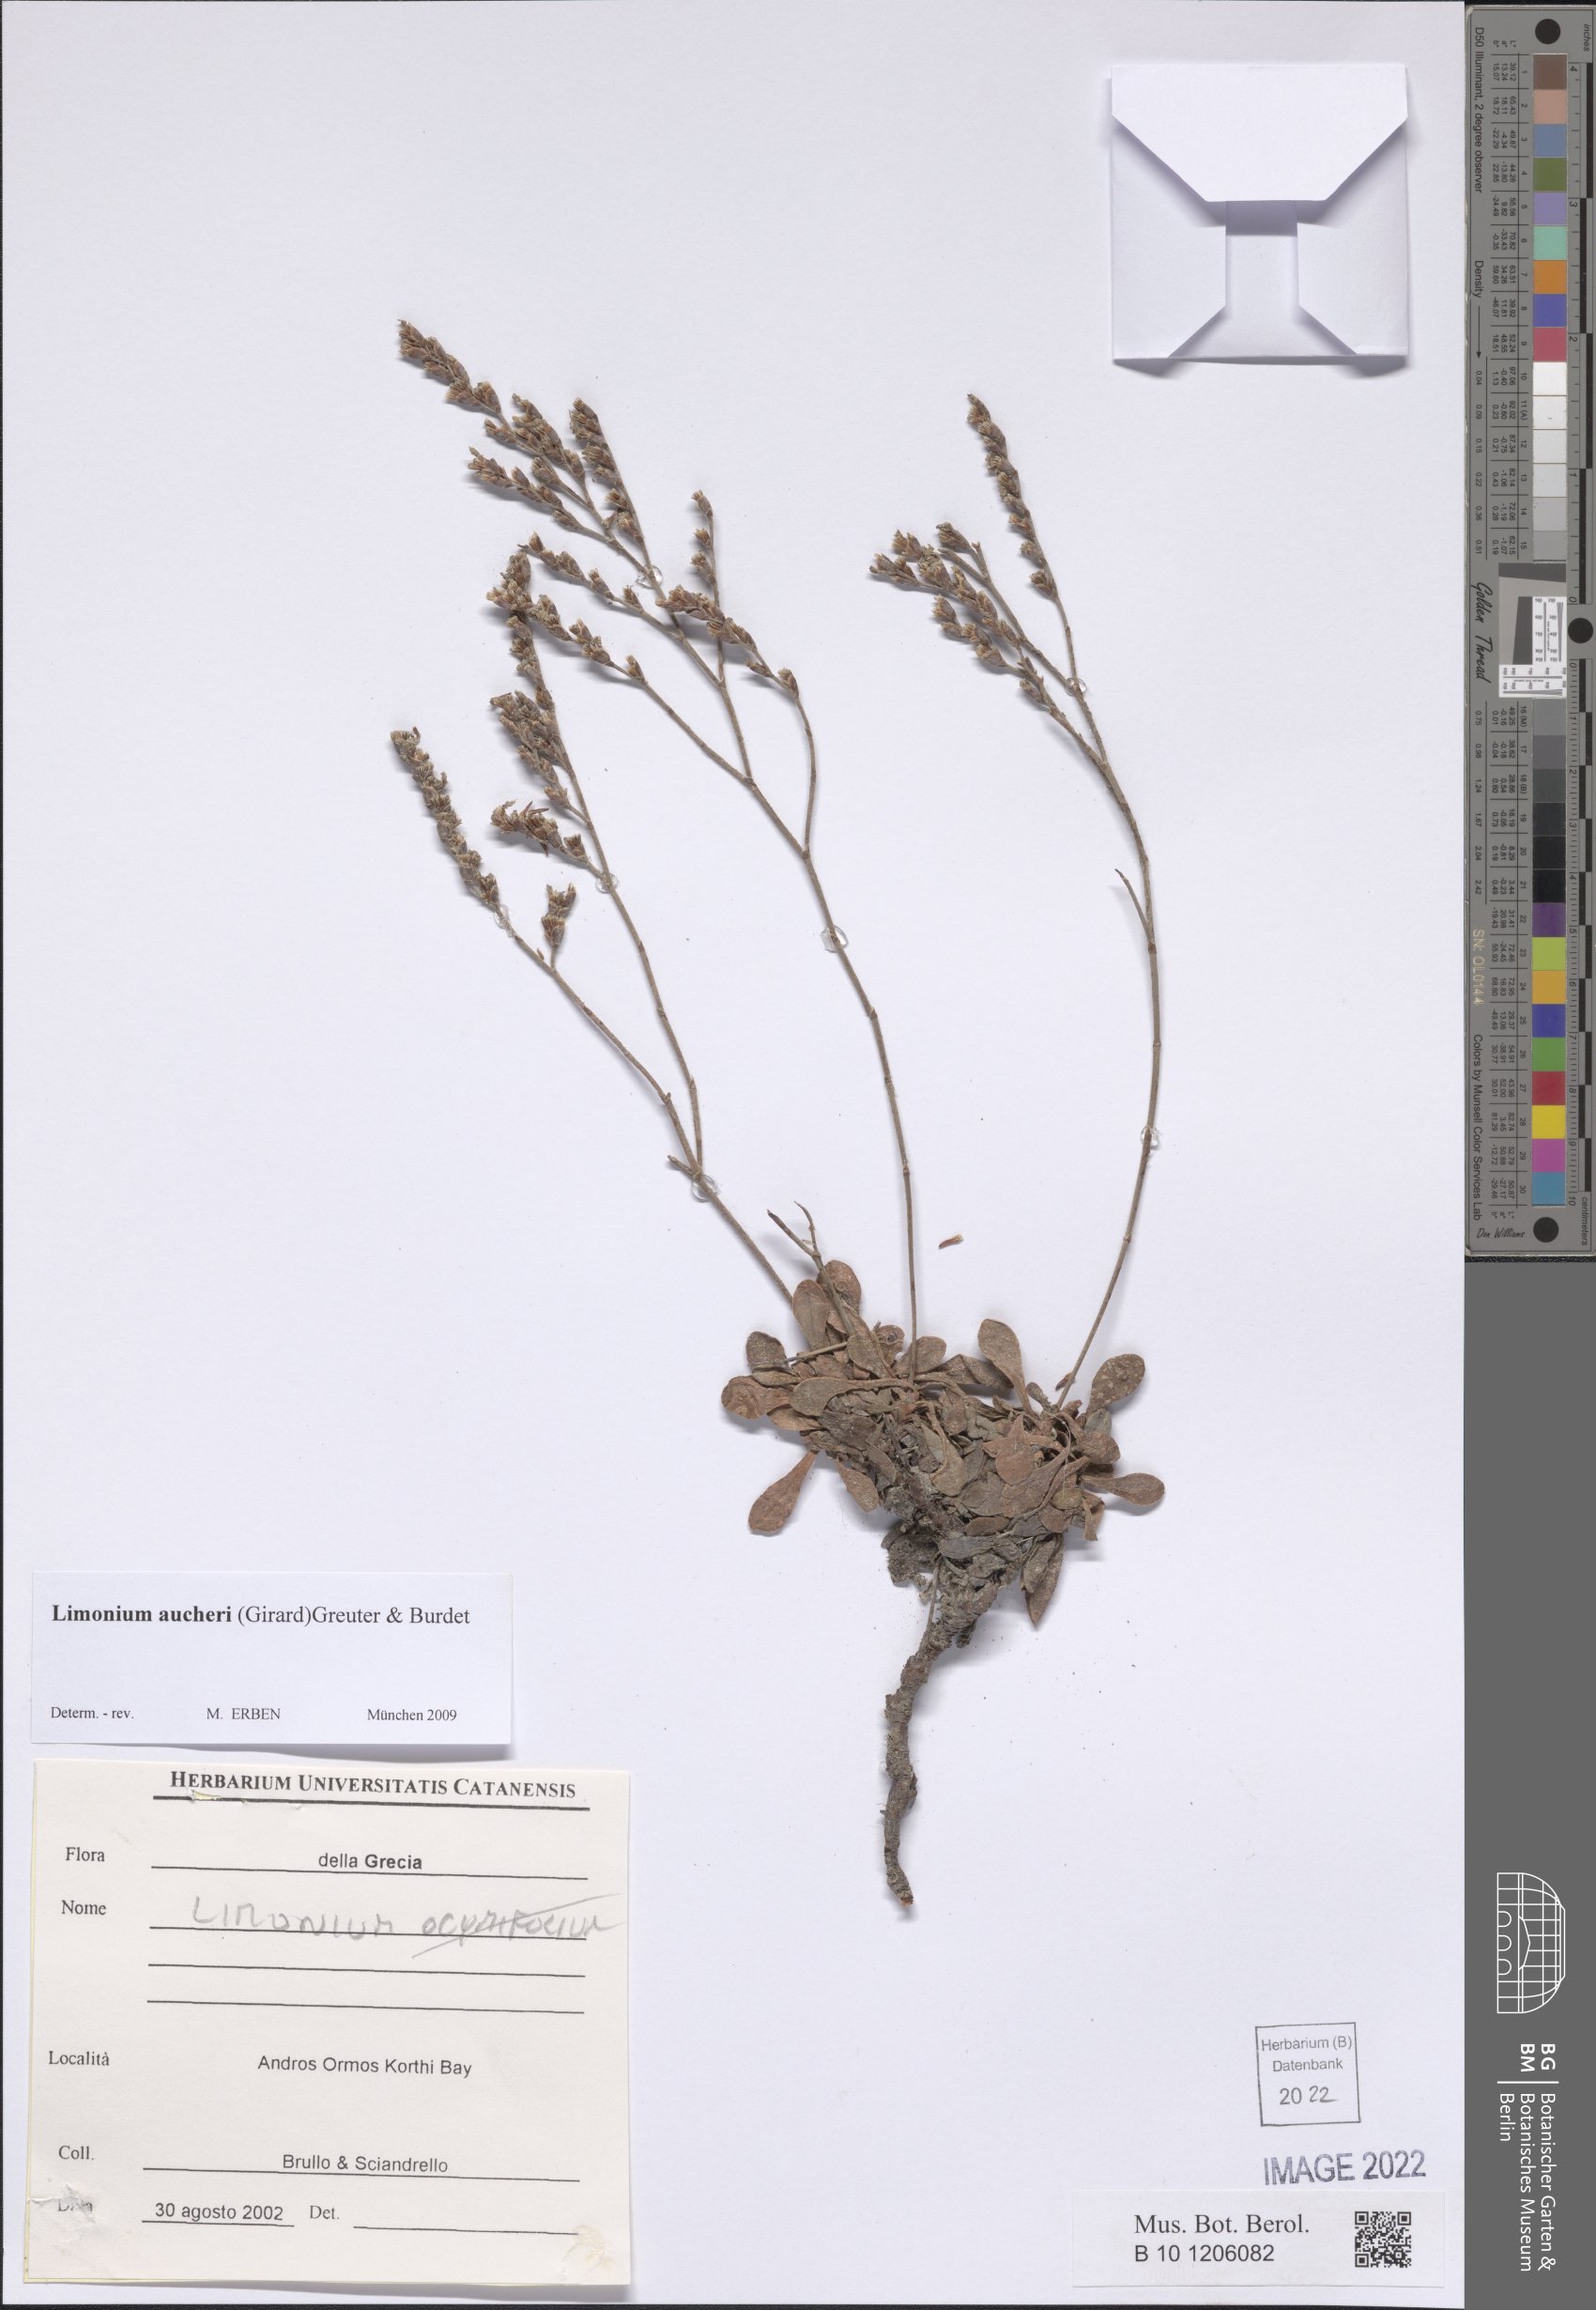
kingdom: Plantae
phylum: Tracheophyta
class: Magnoliopsida
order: Caryophyllales
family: Plumbaginaceae
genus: Limonium
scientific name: Limonium aucheri
